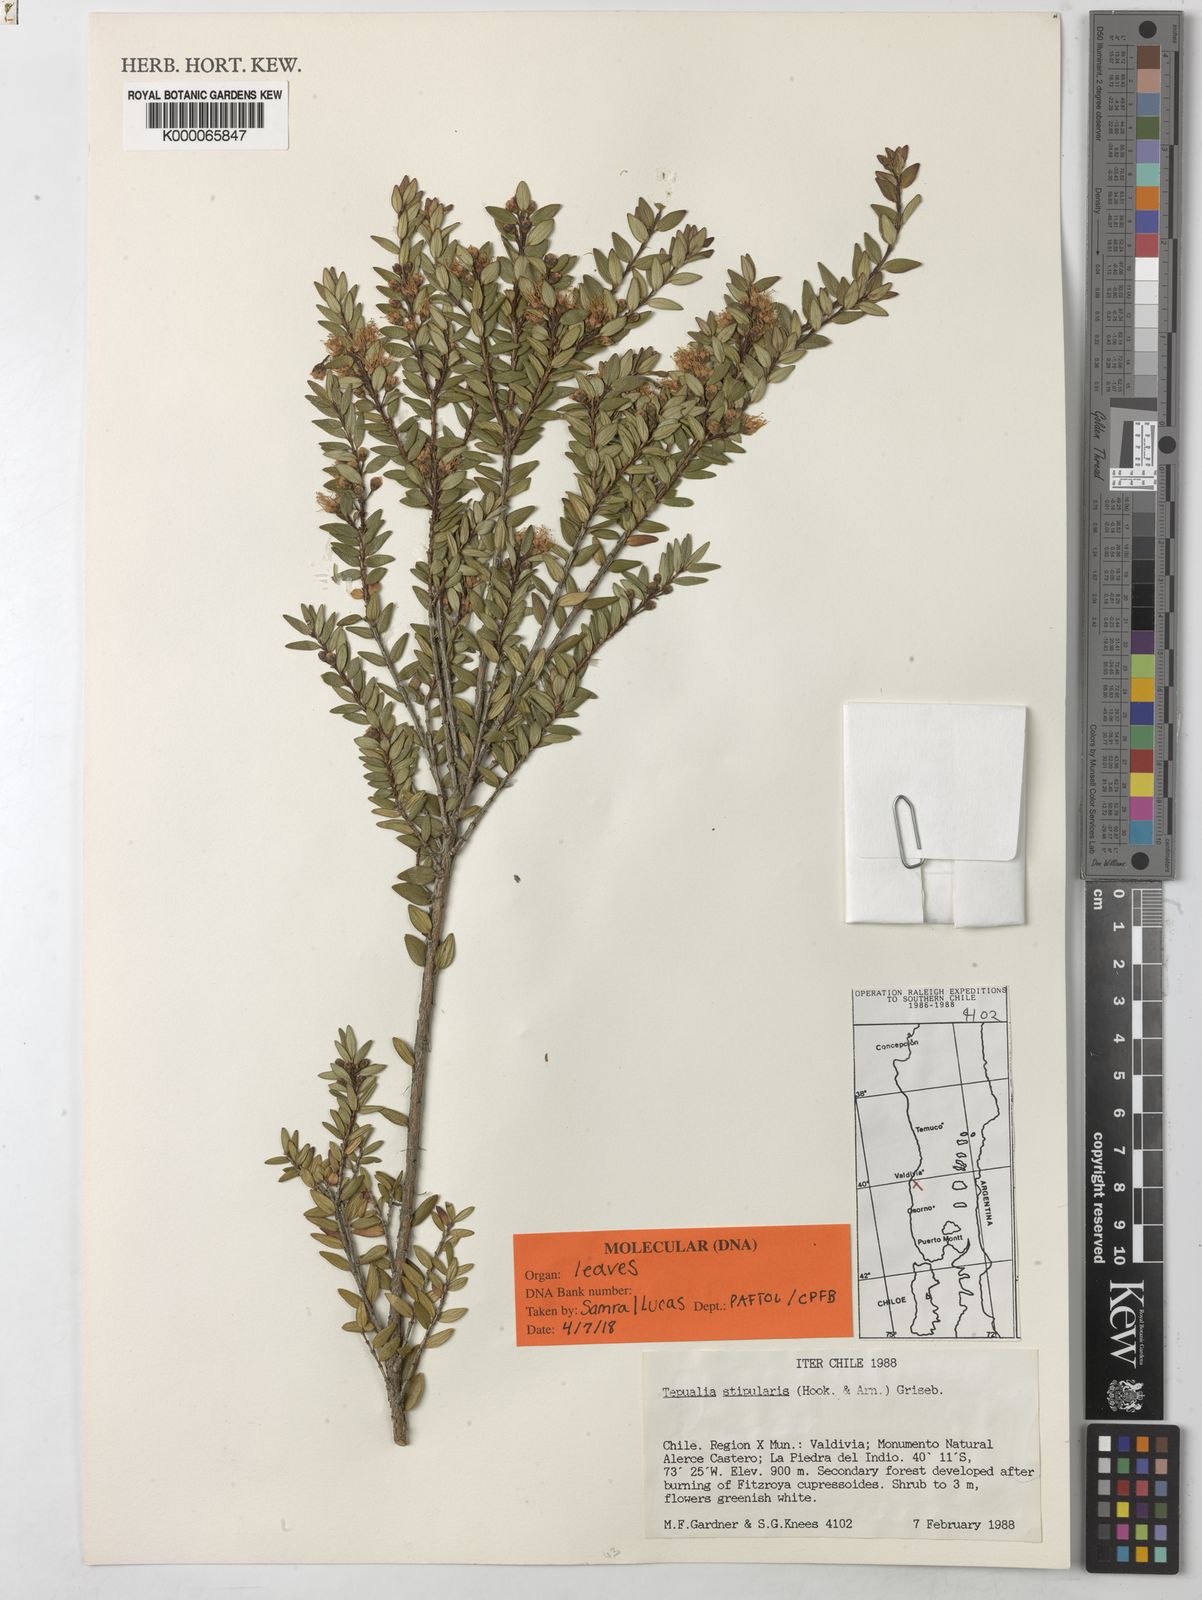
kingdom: Plantae
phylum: Tracheophyta
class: Magnoliopsida
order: Myrtales
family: Myrtaceae
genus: Tepualia
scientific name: Tepualia stipularis
